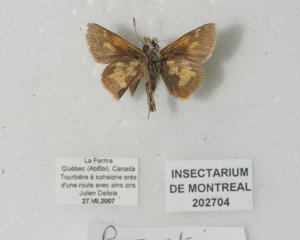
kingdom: Animalia
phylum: Arthropoda
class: Insecta
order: Lepidoptera
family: Hesperiidae
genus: Polites
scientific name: Polites coras
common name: Peck's Skipper
